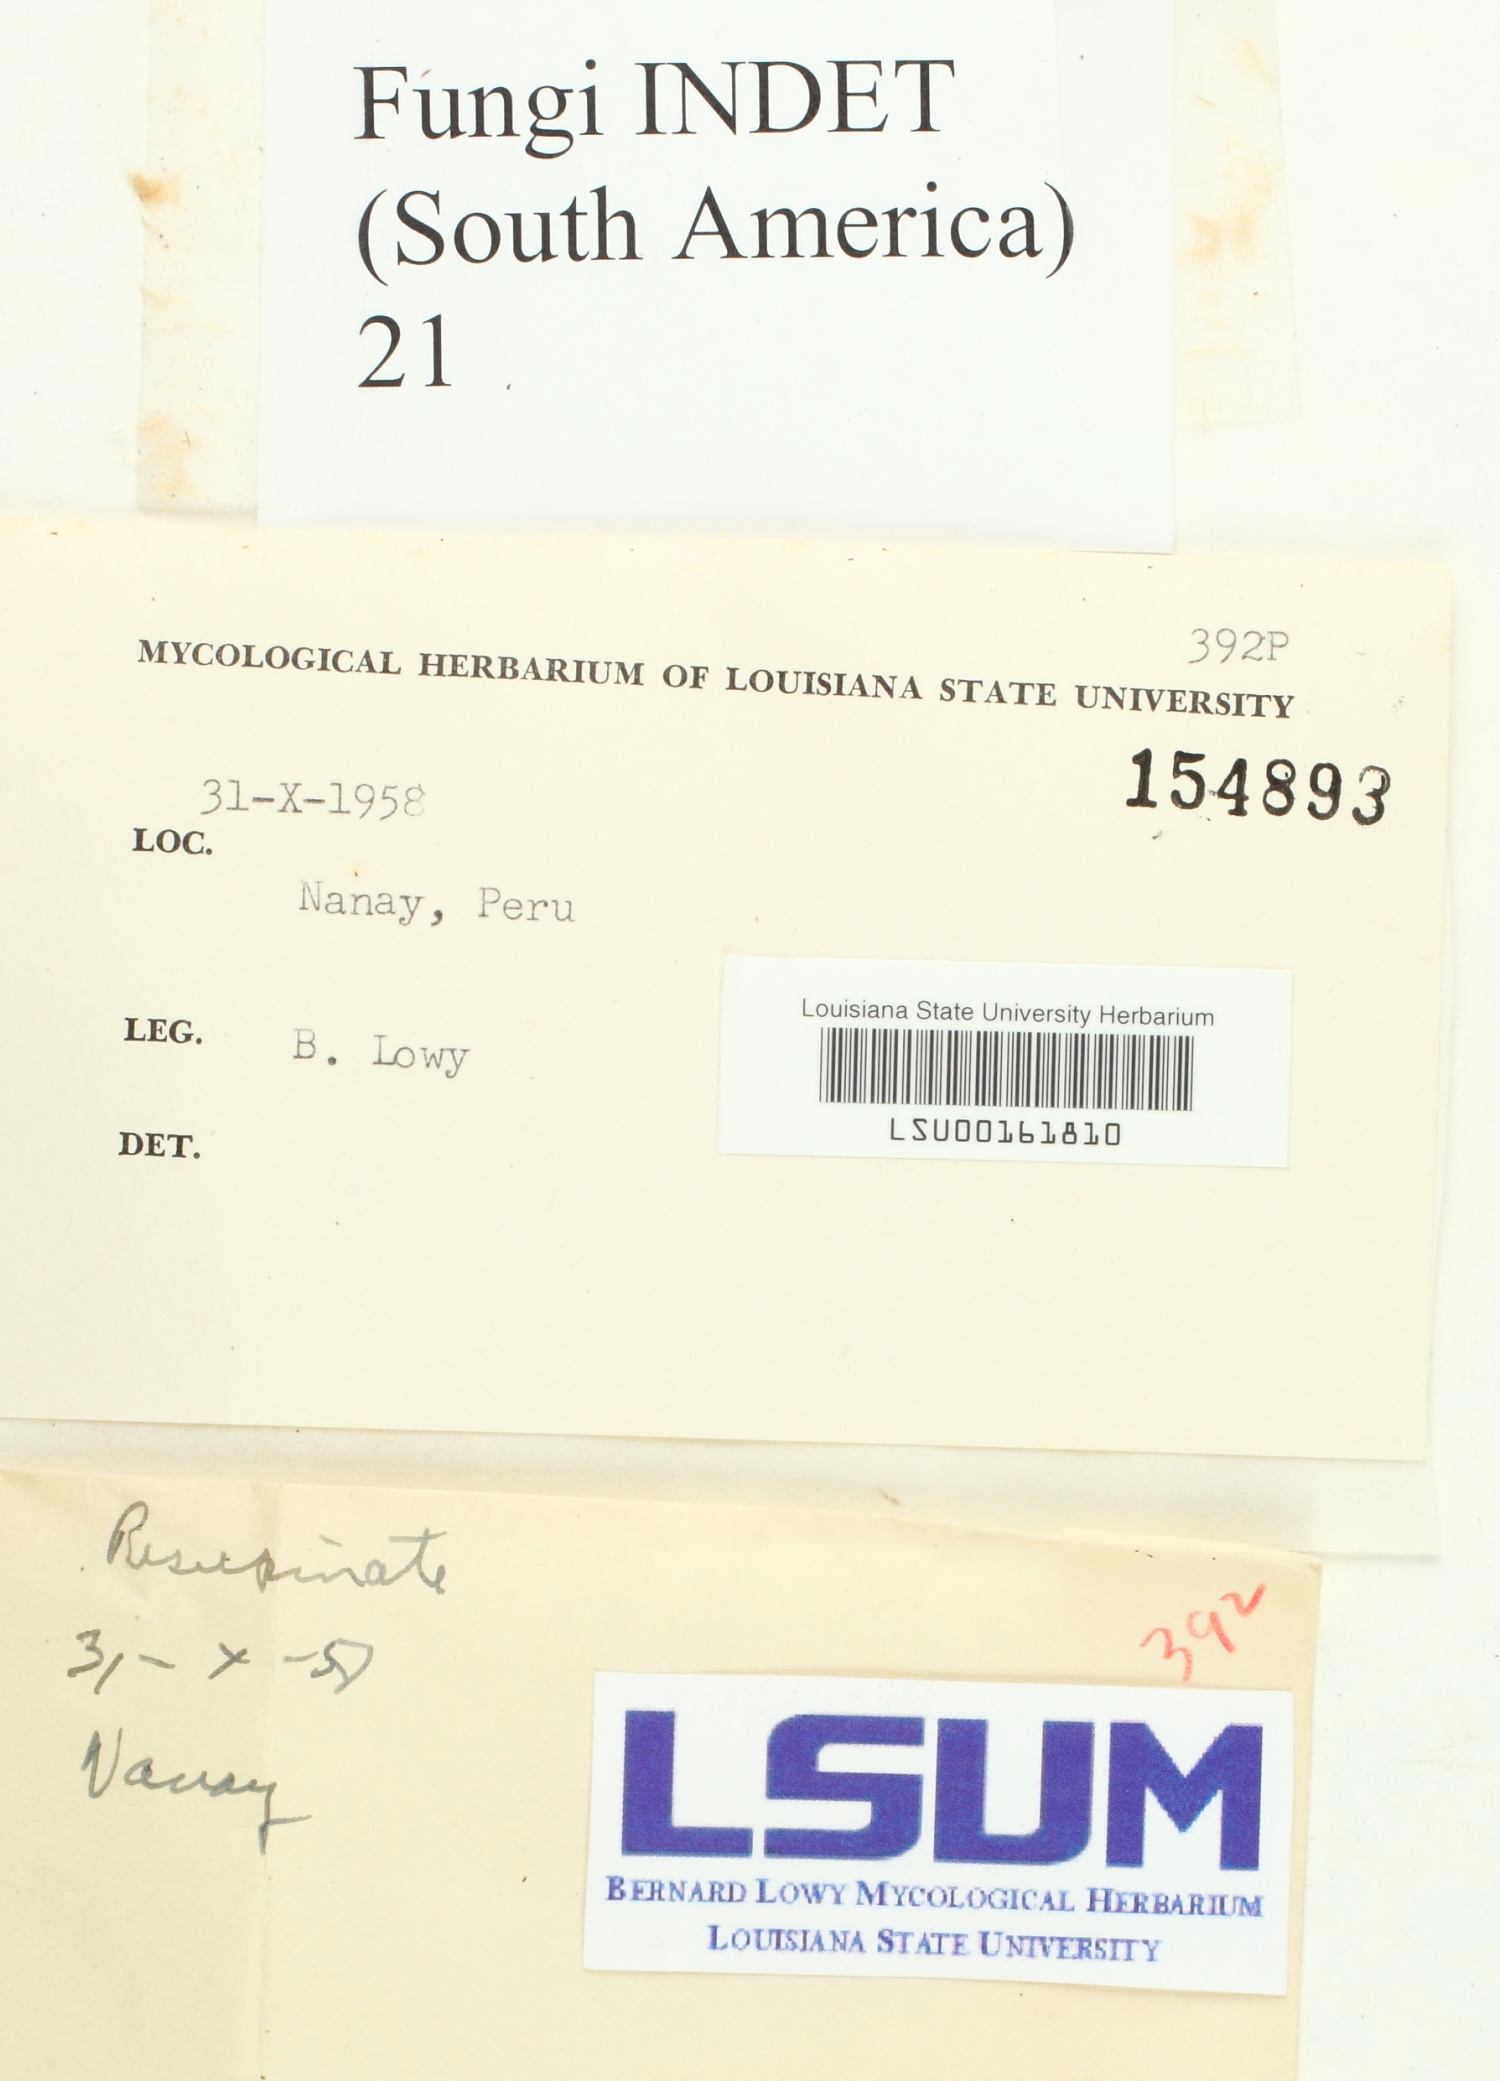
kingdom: Fungi
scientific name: Fungi
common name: Fungi
